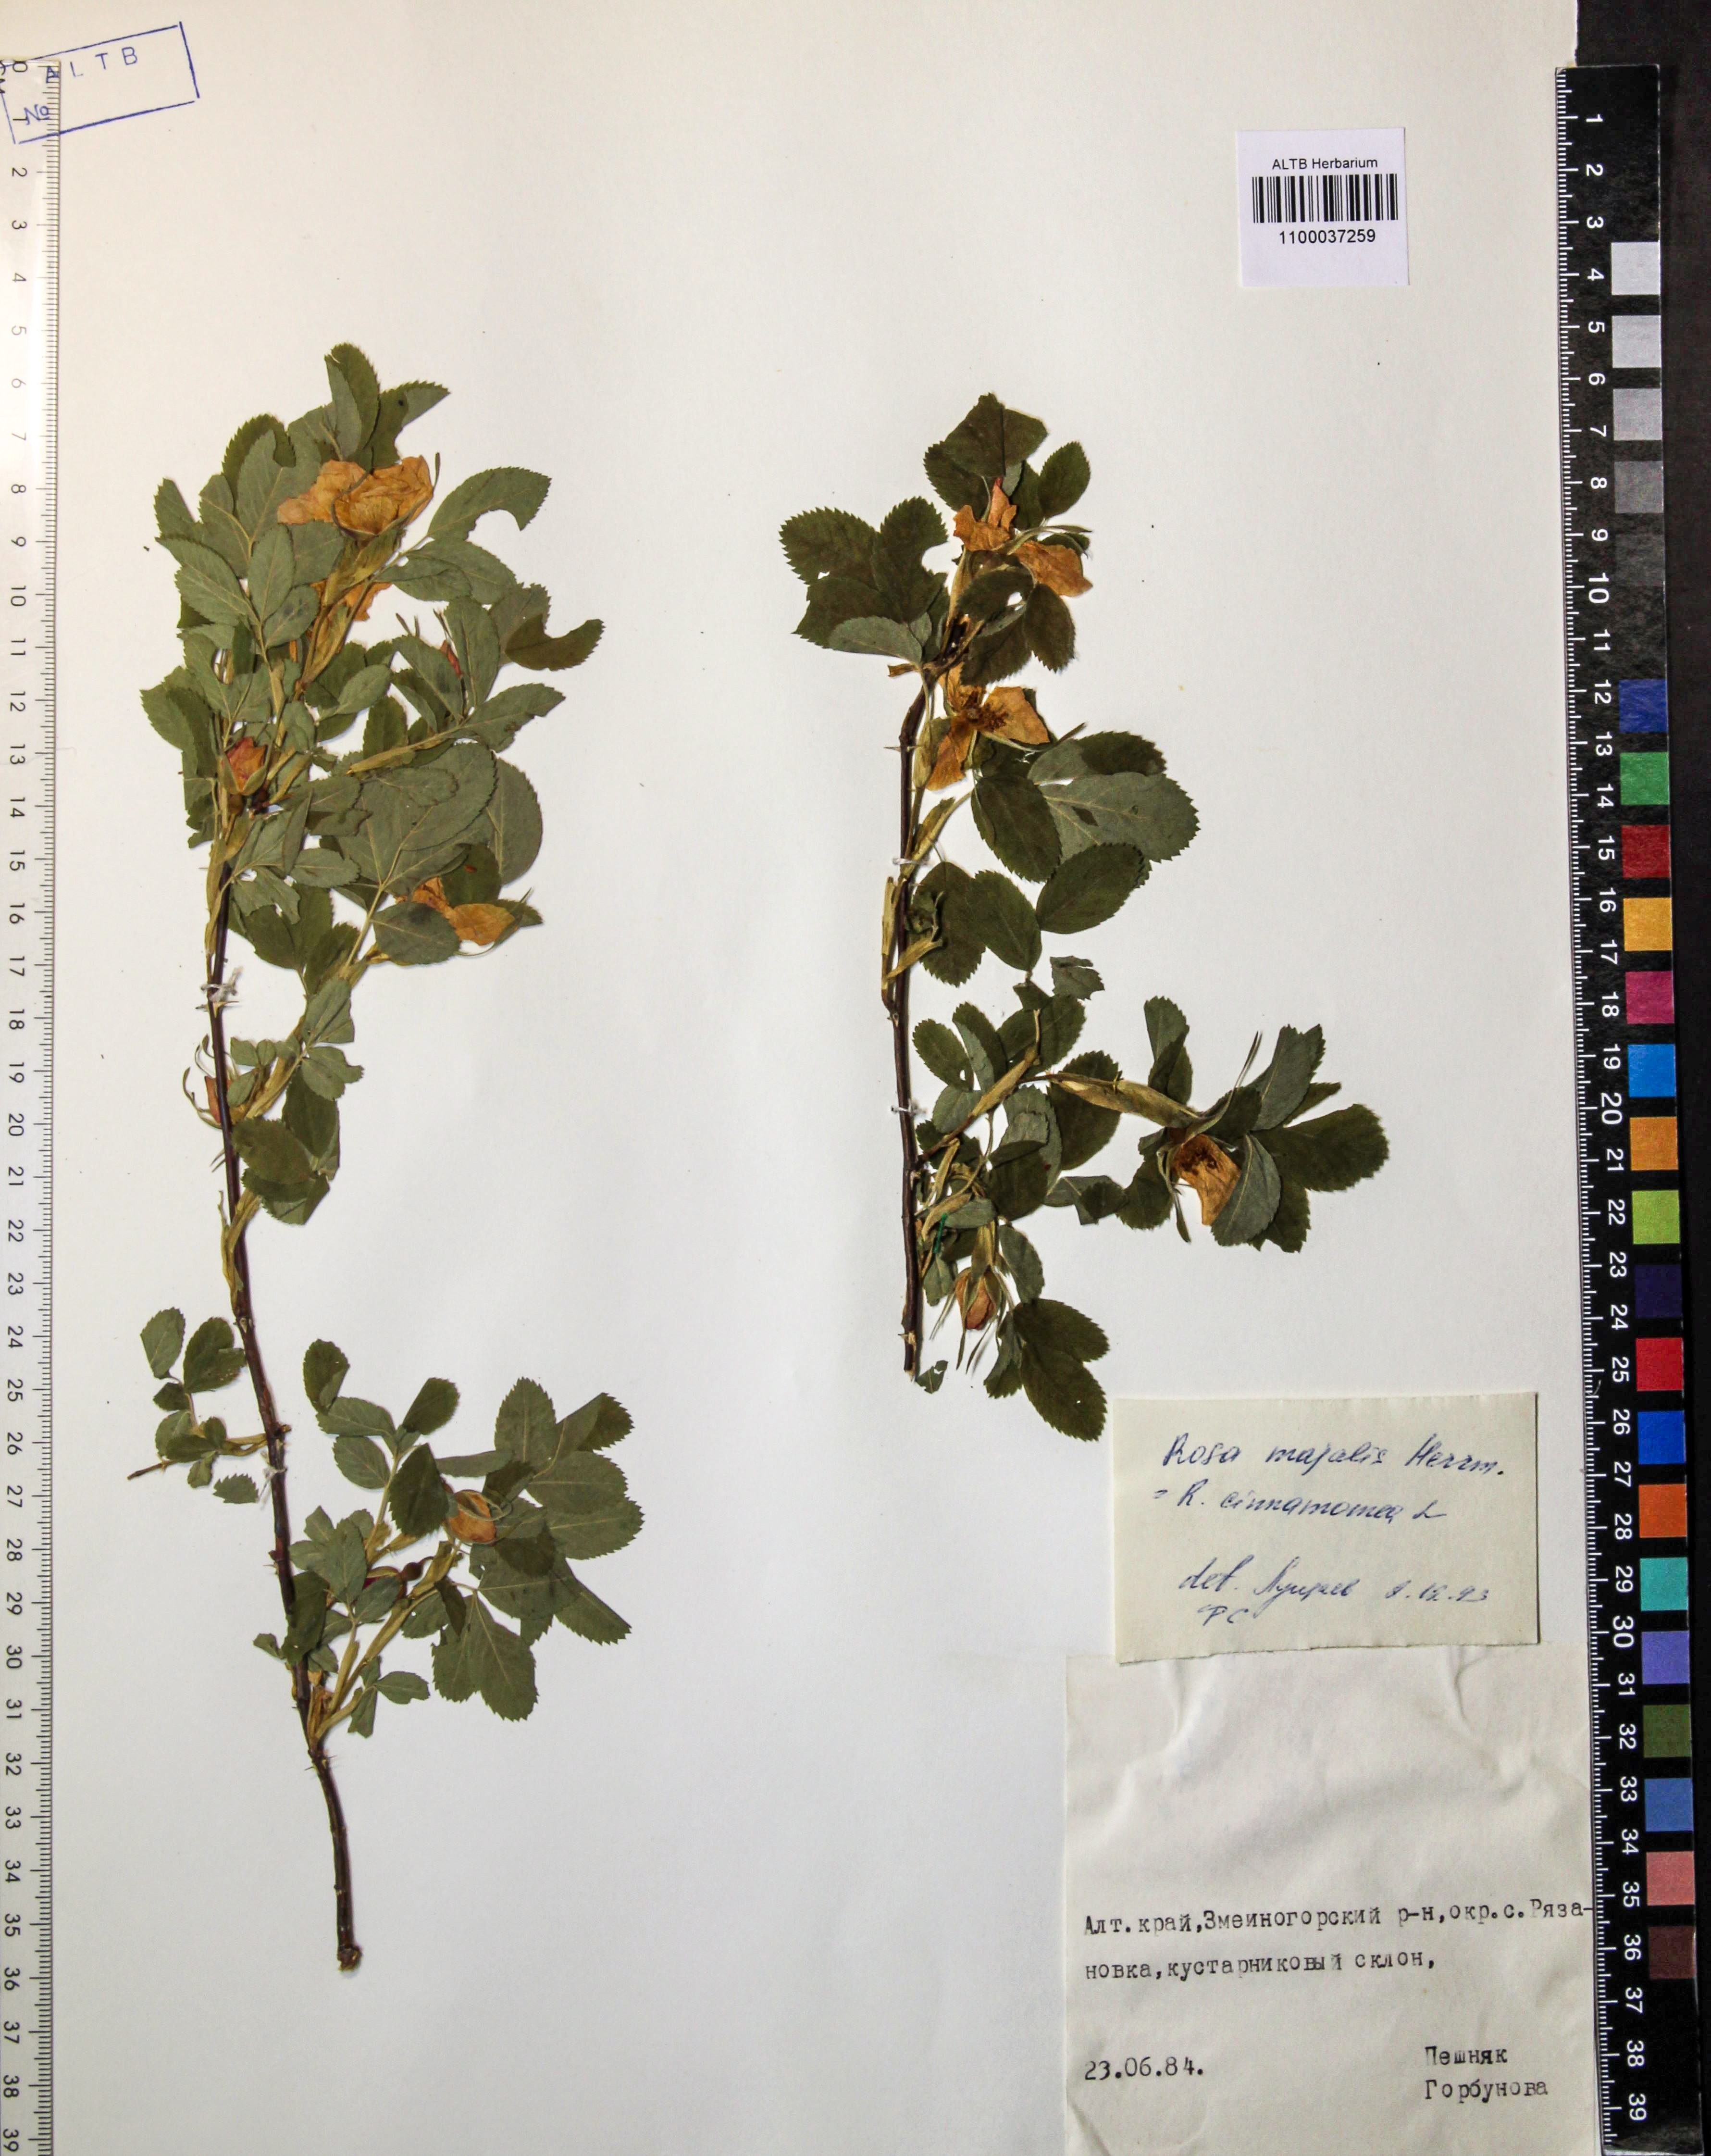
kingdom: Plantae
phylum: Tracheophyta
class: Magnoliopsida
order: Rosales
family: Rosaceae
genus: Rosa
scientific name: Rosa majalis
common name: Cinnamon rose
